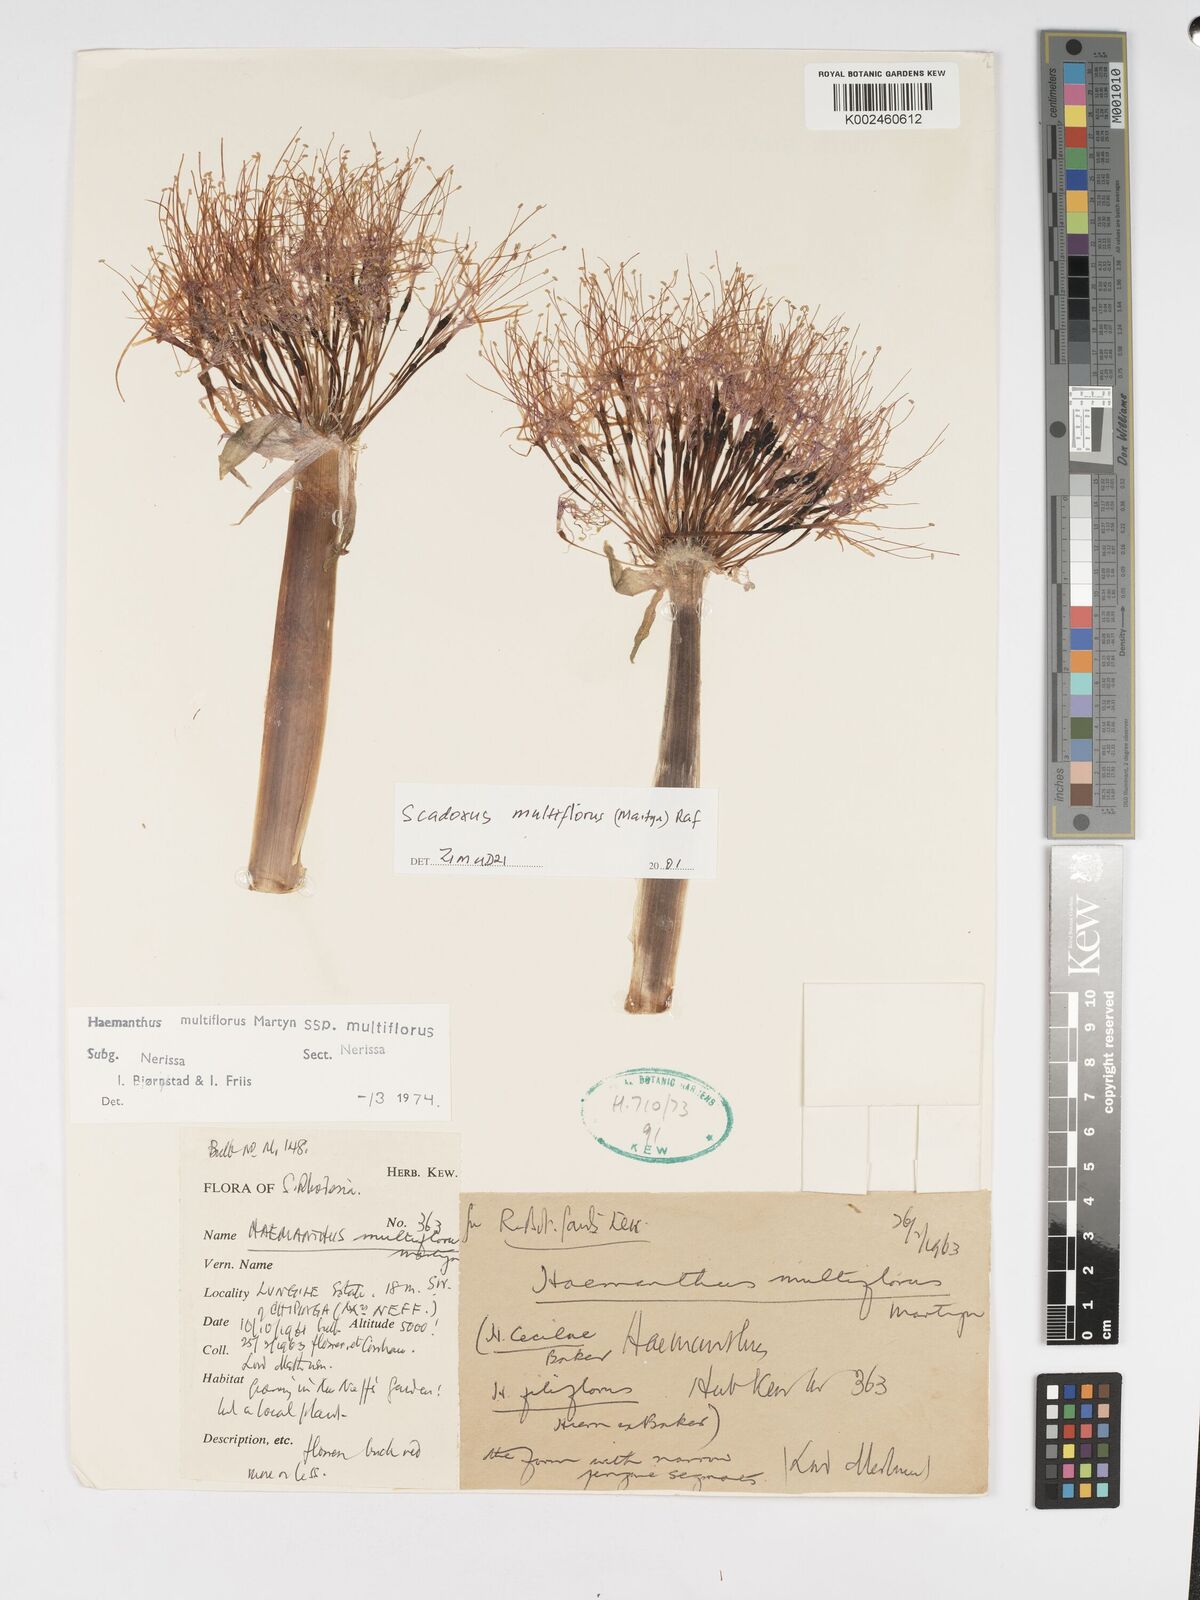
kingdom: Plantae
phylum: Tracheophyta
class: Liliopsida
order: Asparagales
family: Amaryllidaceae
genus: Scadoxus
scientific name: Scadoxus multiflorus
